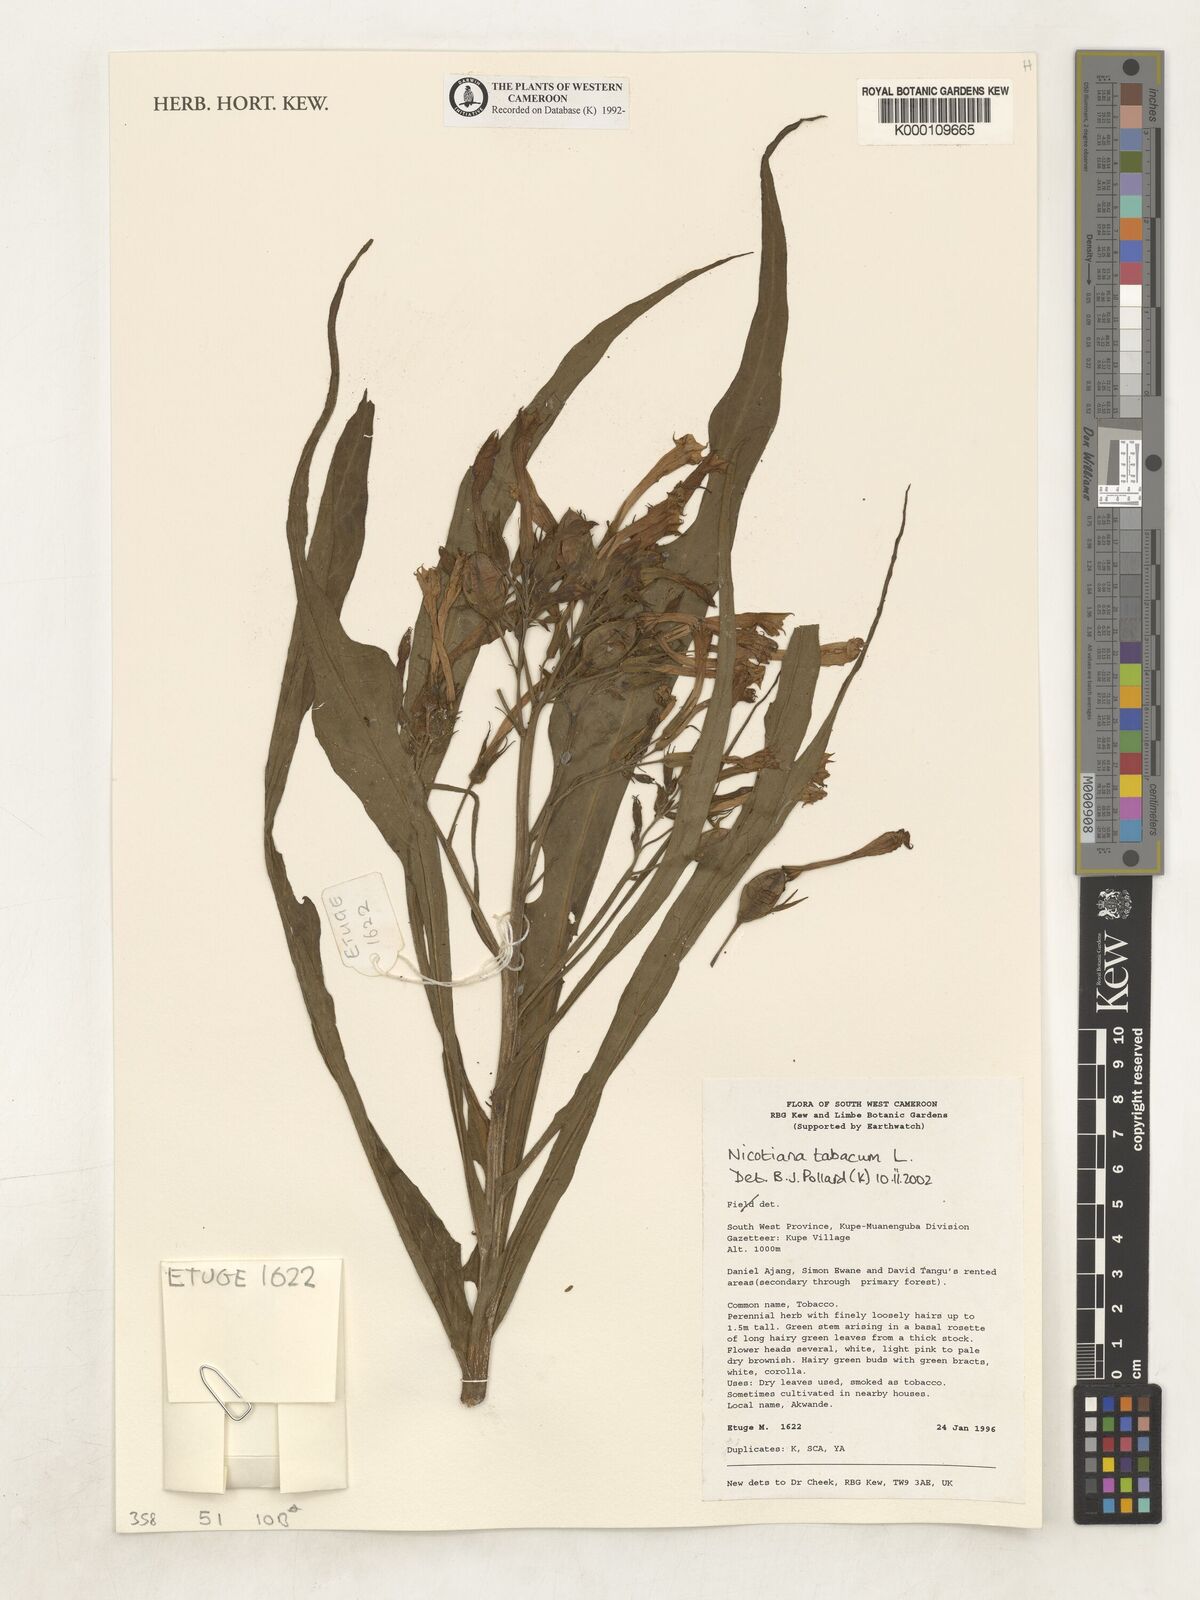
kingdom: Plantae
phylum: Tracheophyta
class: Magnoliopsida
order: Solanales
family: Solanaceae
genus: Nicotiana
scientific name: Nicotiana tabacum
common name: Tobacco
